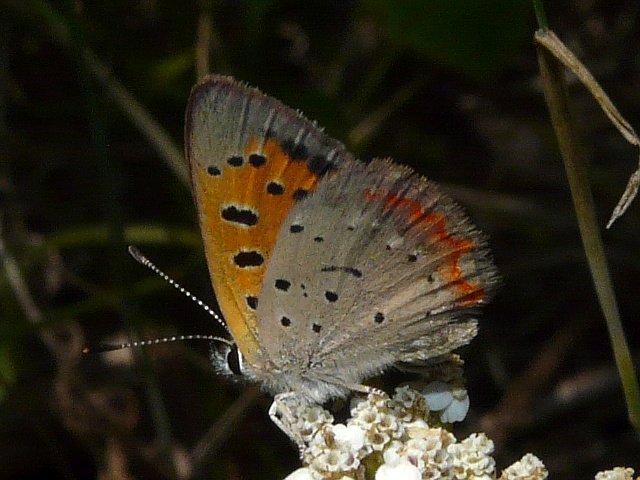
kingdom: Animalia
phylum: Arthropoda
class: Insecta
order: Lepidoptera
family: Lycaenidae
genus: Lycaena
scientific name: Lycaena phlaeas
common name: American Copper
